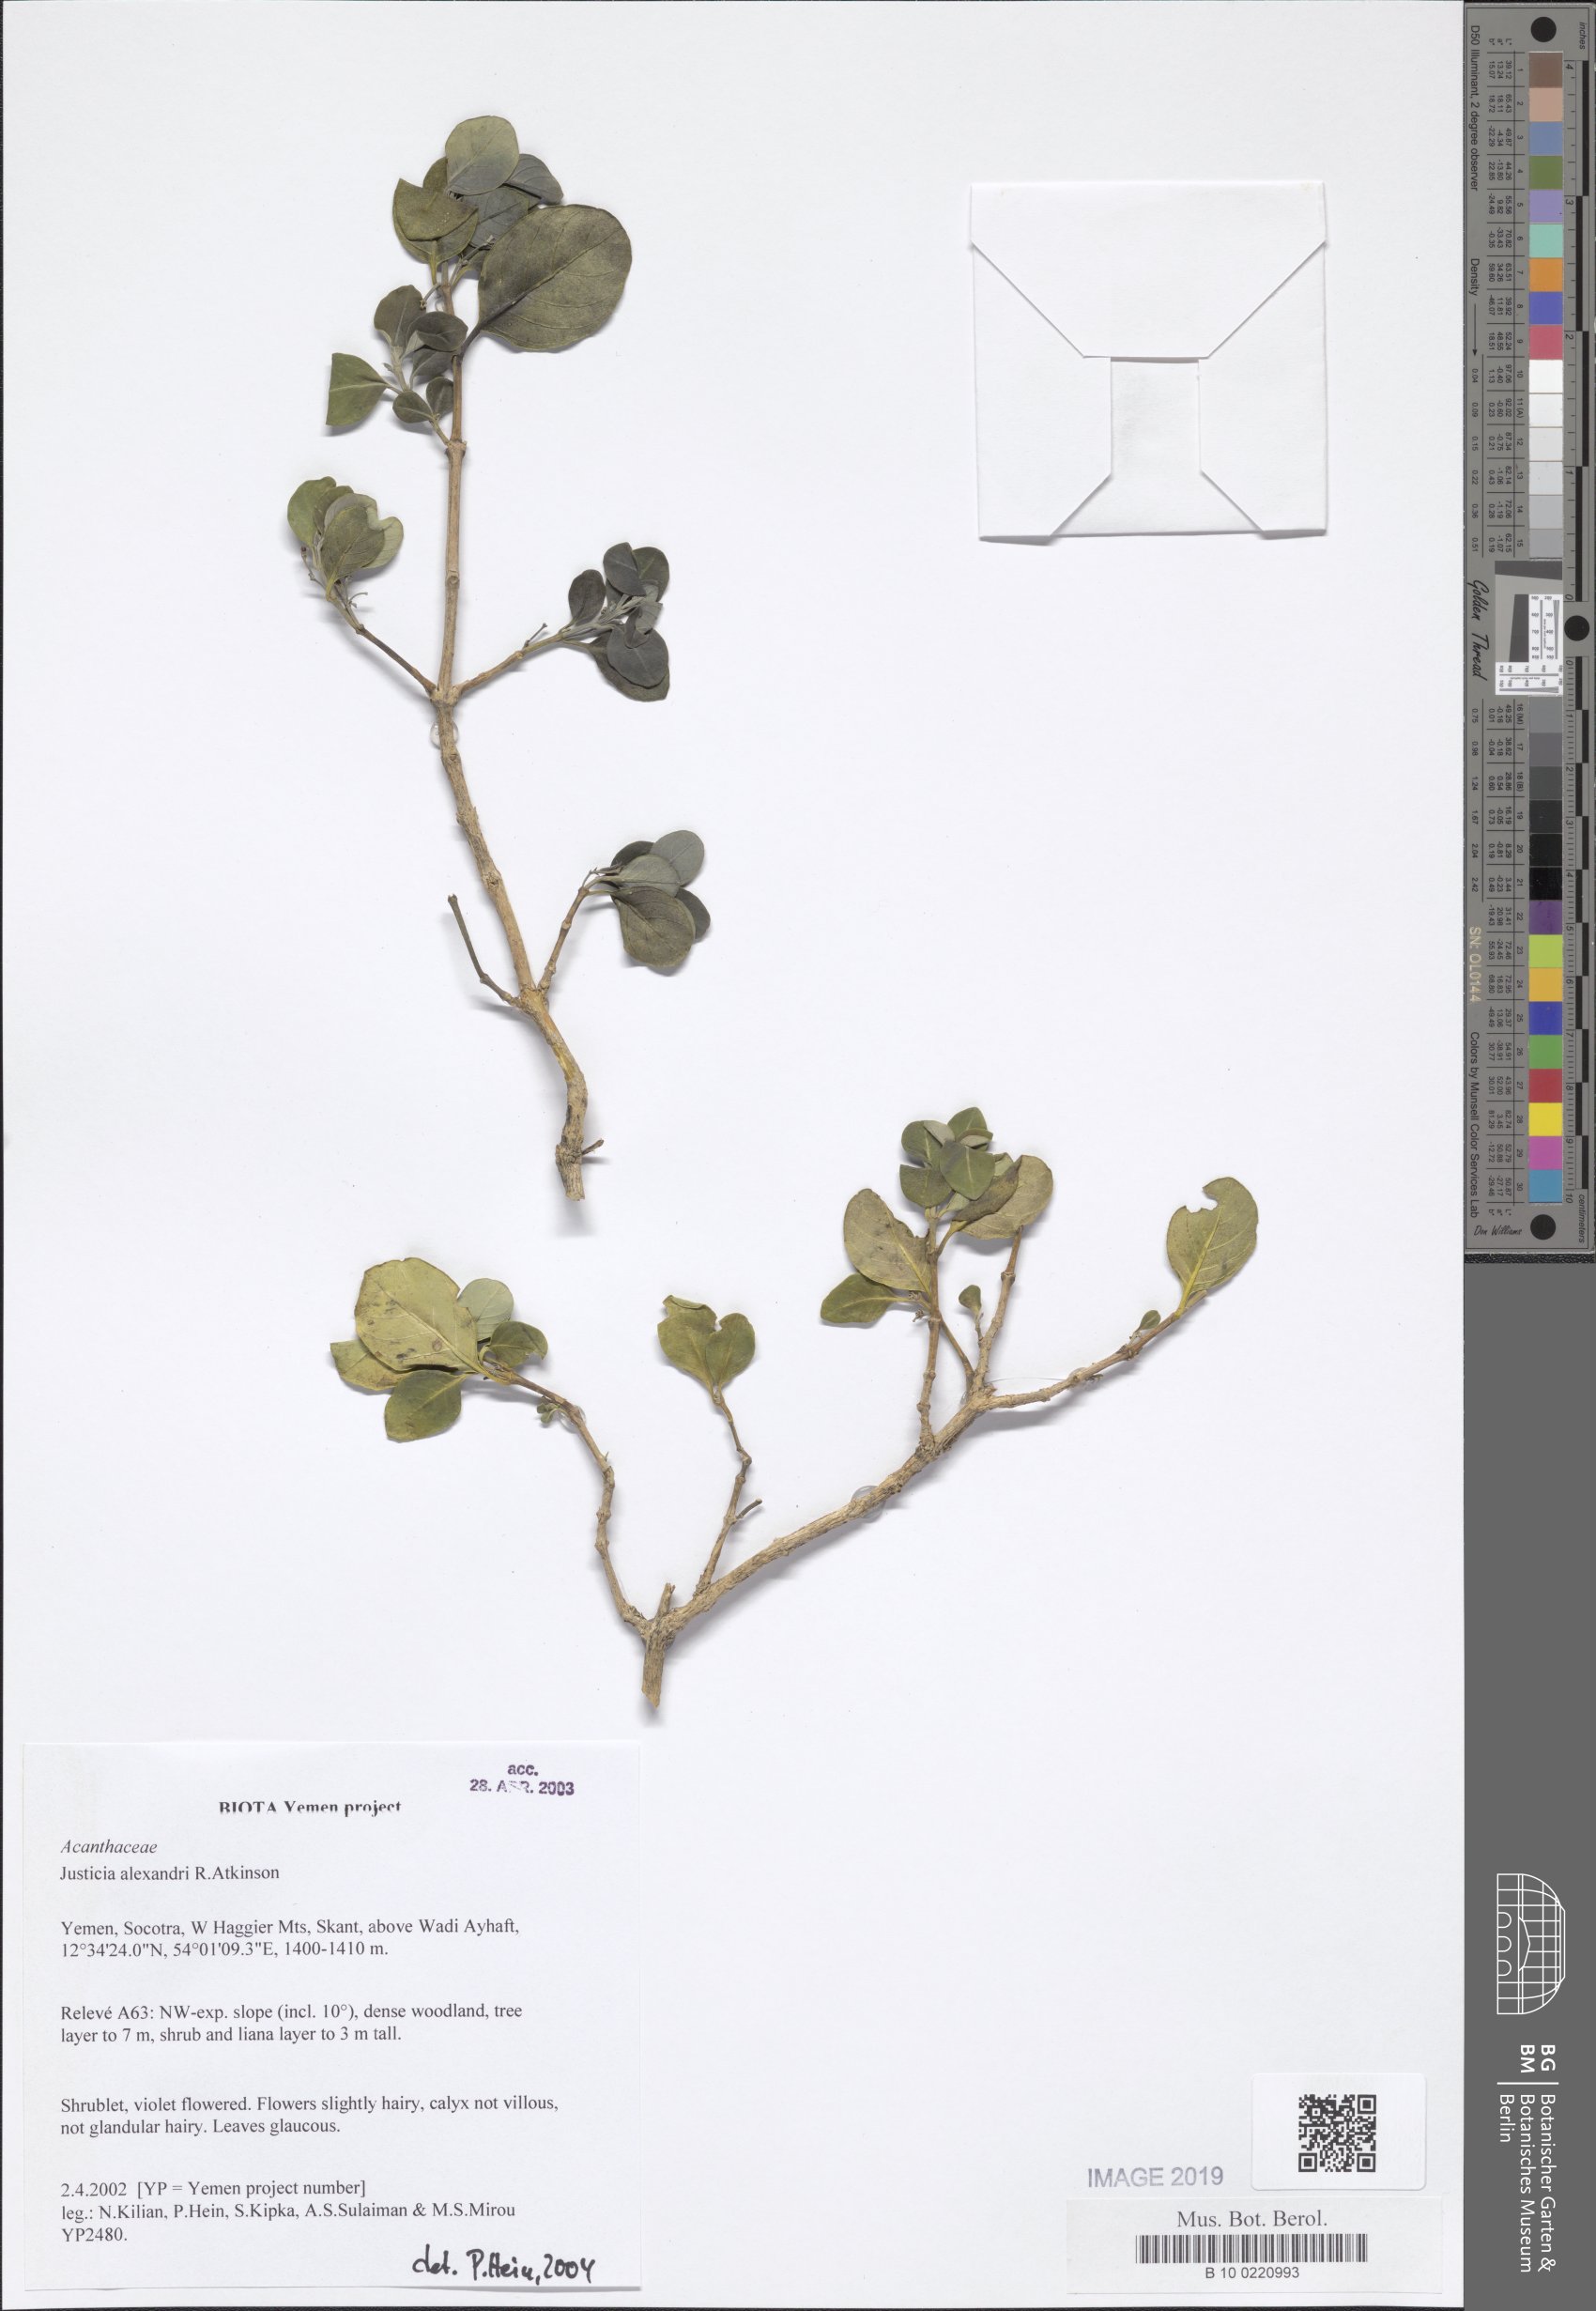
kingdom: Plantae
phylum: Tracheophyta
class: Magnoliopsida
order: Lamiales
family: Acanthaceae
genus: Justicia
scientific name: Justicia alexandri
